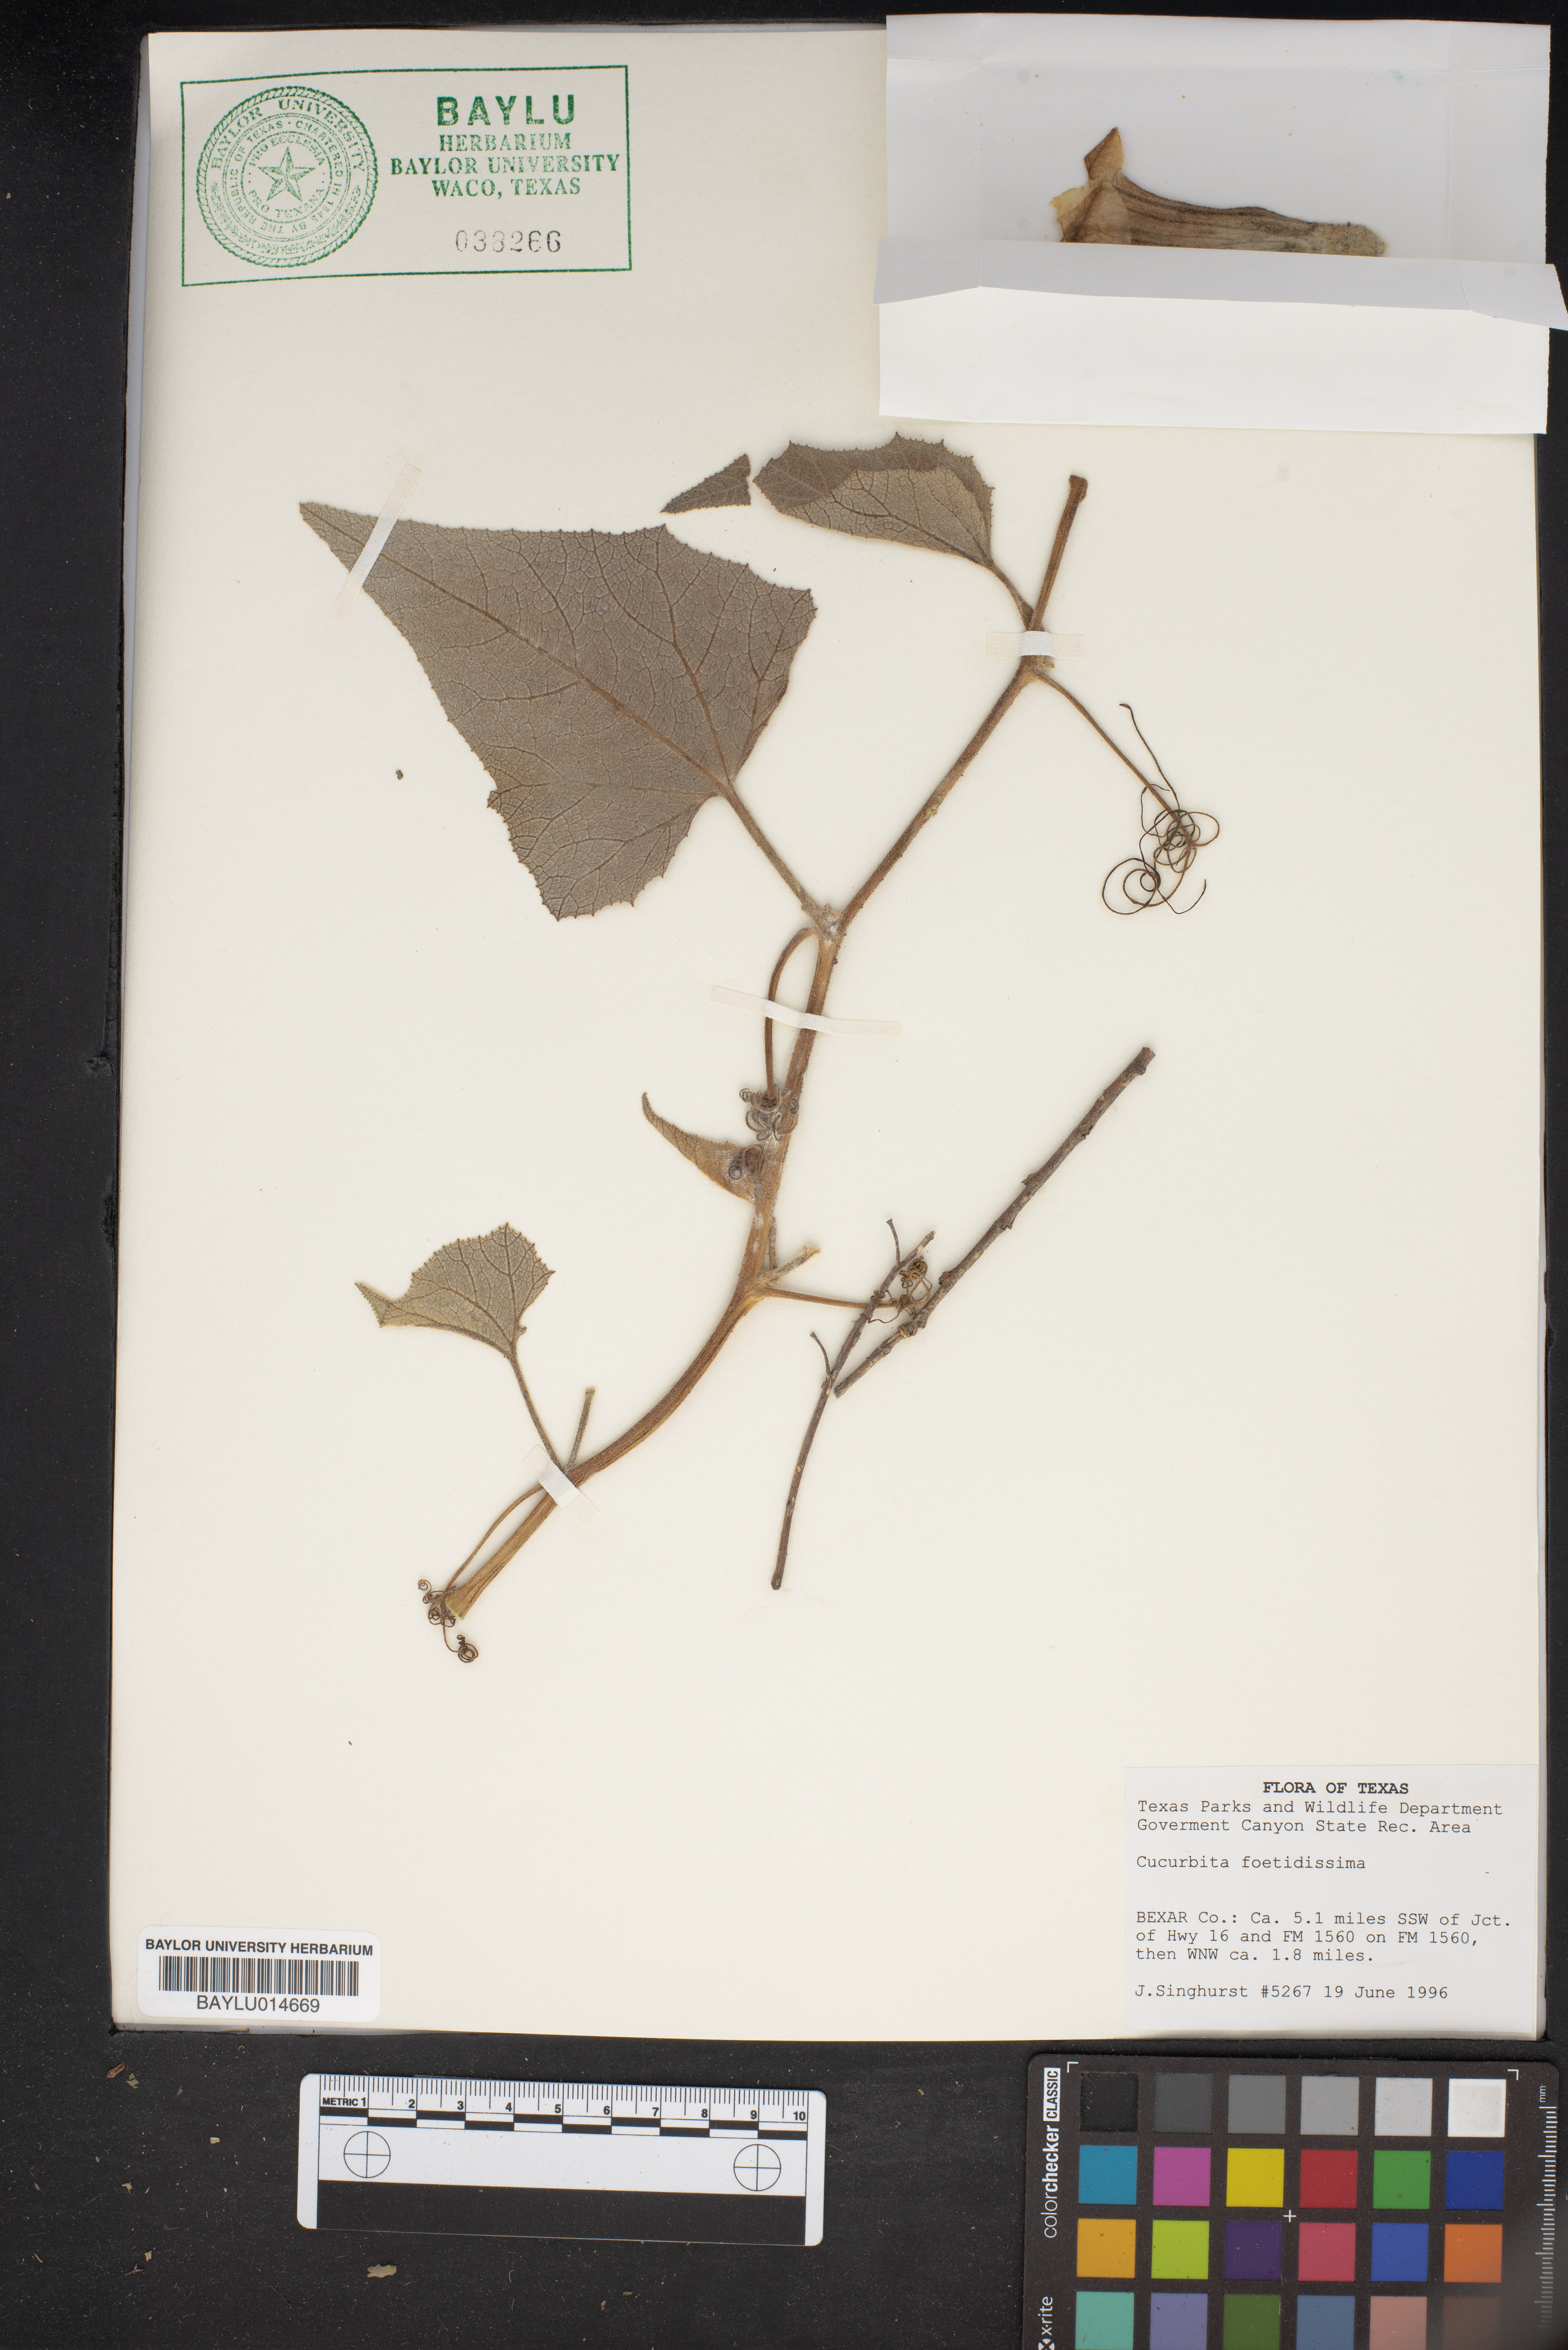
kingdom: Plantae
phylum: Tracheophyta
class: Magnoliopsida
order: Cucurbitales
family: Cucurbitaceae
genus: Cucurbita
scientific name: Cucurbita foetidissima
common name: Buffalo gourd
